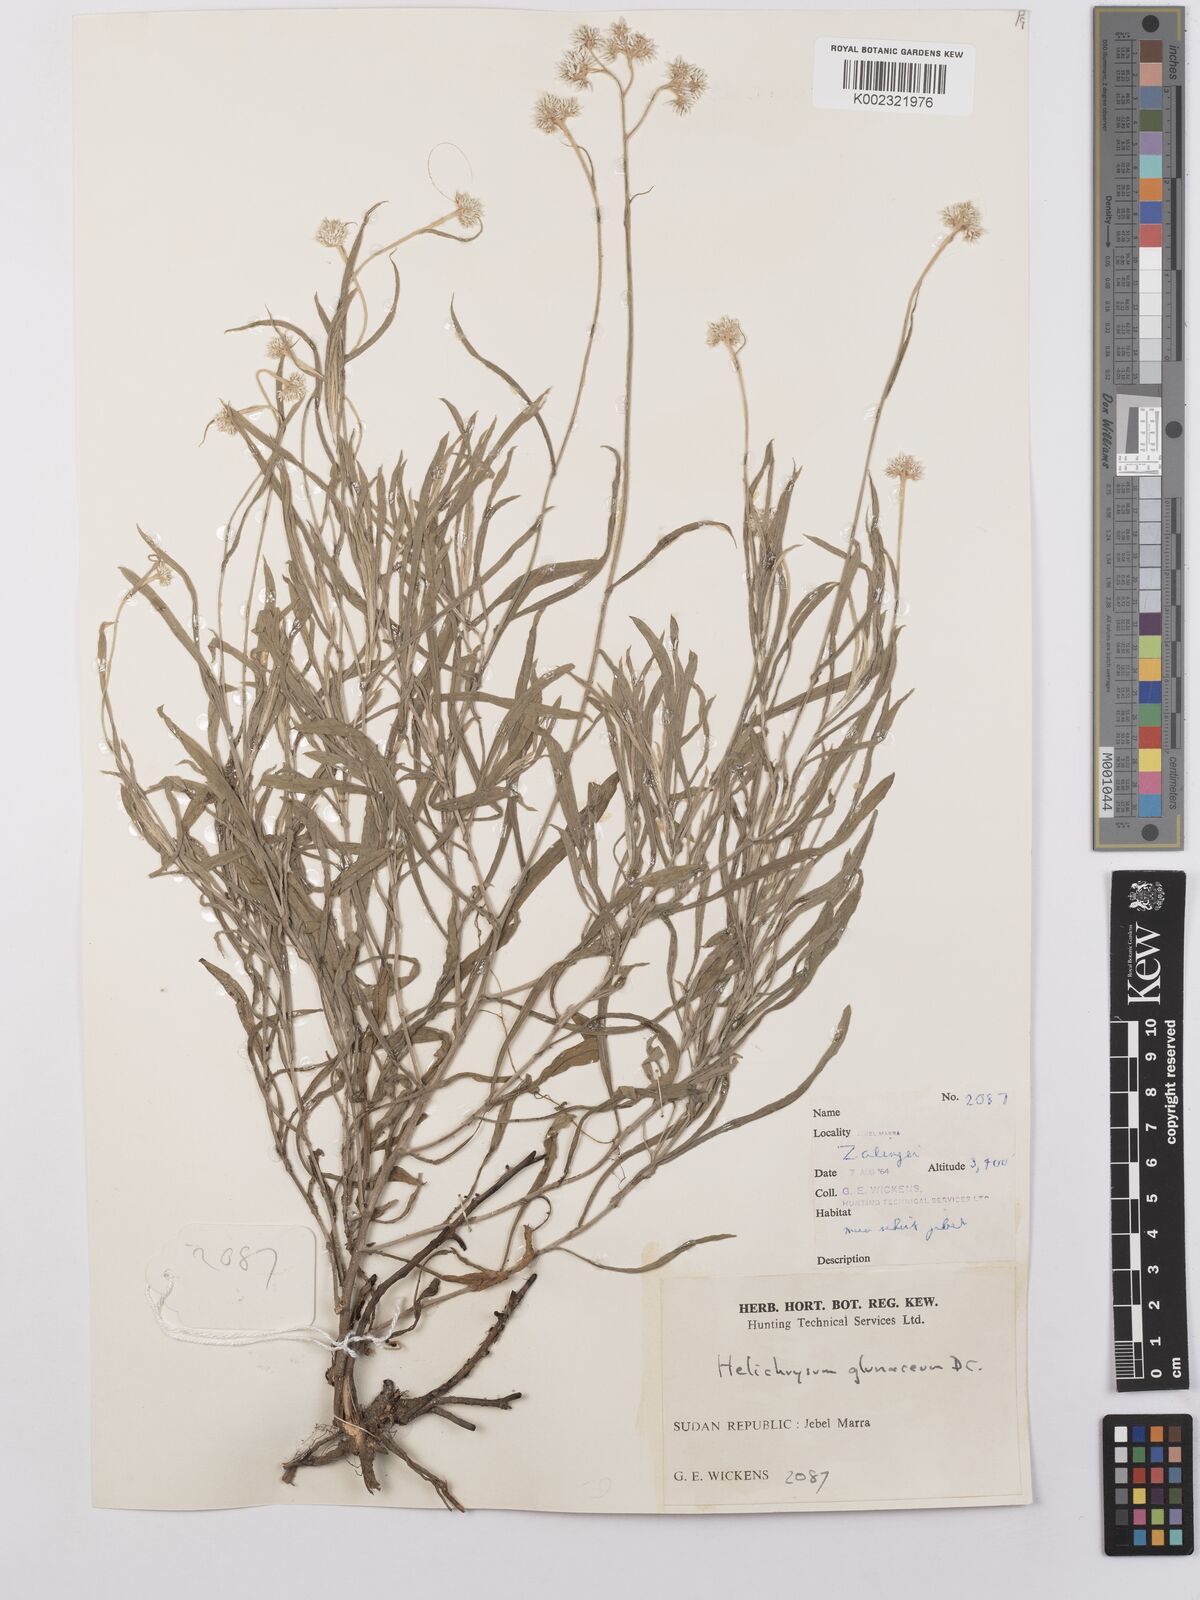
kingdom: Plantae
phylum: Tracheophyta
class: Magnoliopsida
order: Asterales
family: Asteraceae
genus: Helichrysum
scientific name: Helichrysum glumaceum
